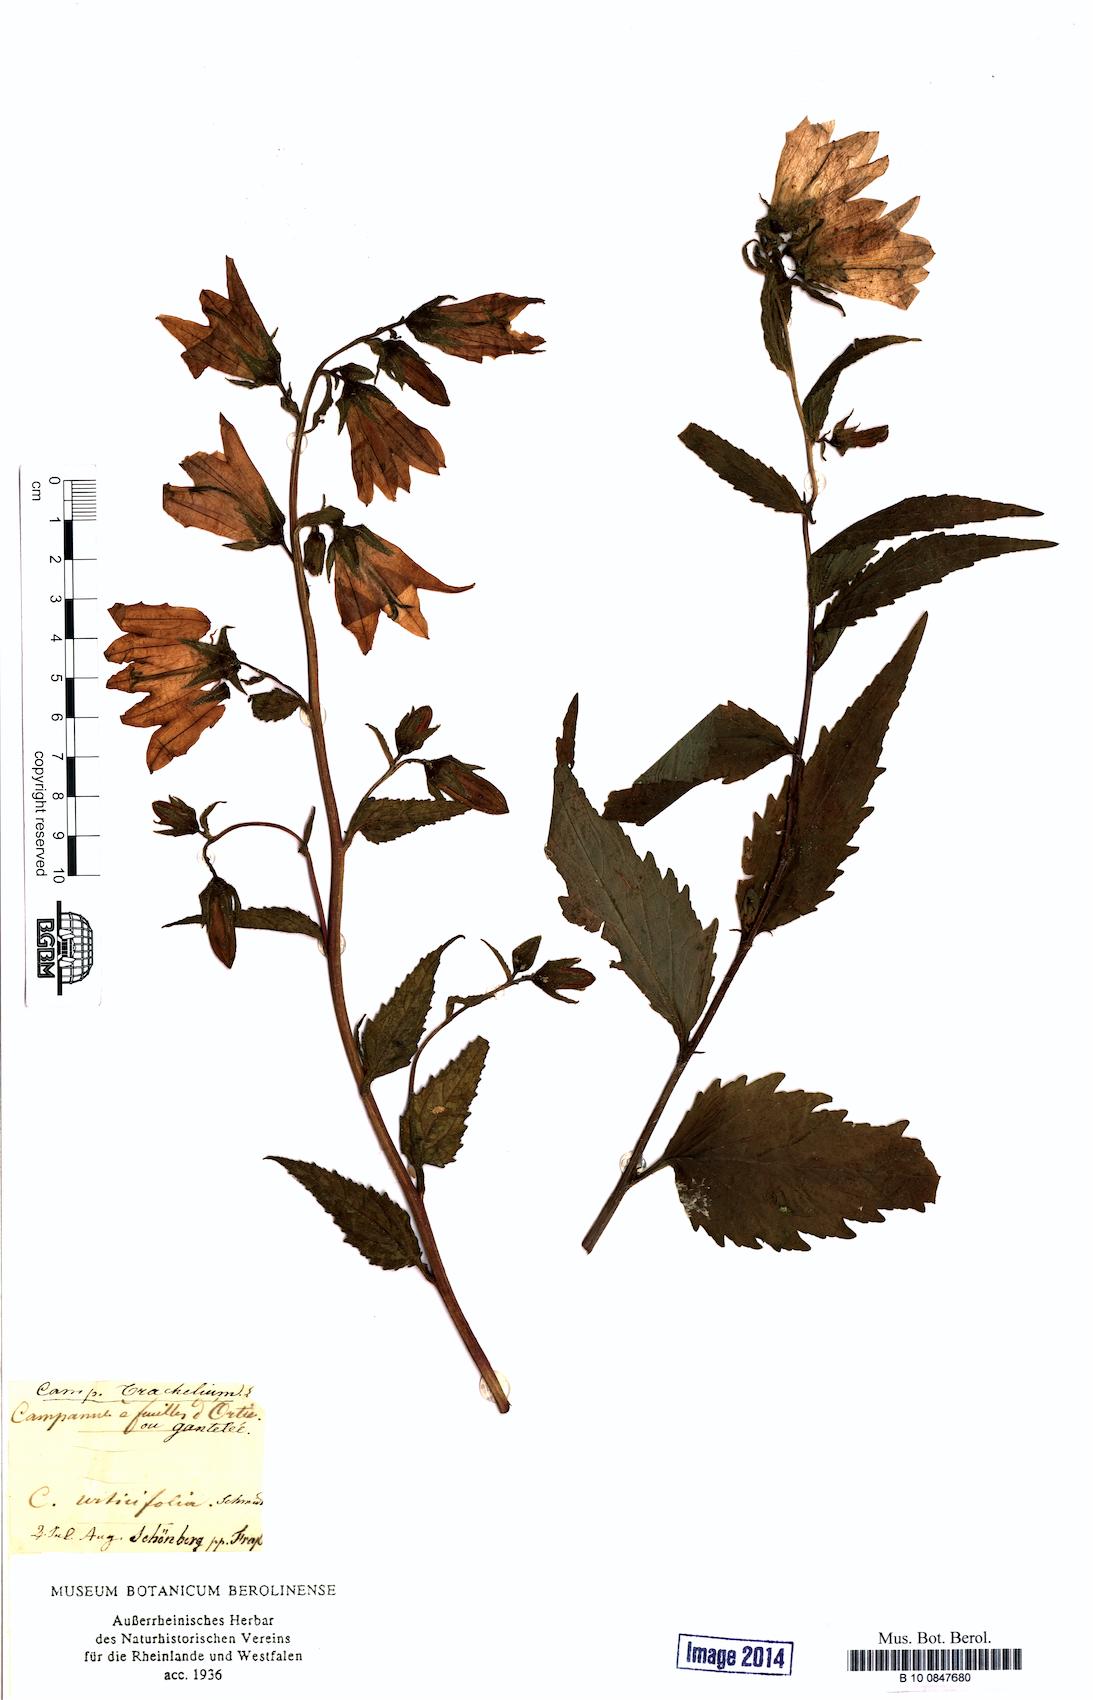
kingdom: Plantae
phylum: Tracheophyta
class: Magnoliopsida
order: Asterales
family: Campanulaceae
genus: Campanula
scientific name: Campanula trachelium
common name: Nettle-leaved bellflower
